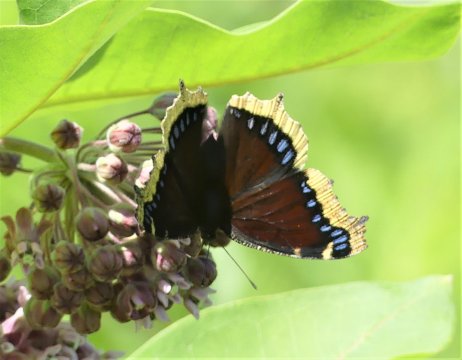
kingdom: Animalia
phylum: Arthropoda
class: Insecta
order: Lepidoptera
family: Nymphalidae
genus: Nymphalis
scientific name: Nymphalis antiopa
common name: Mourning Cloak
